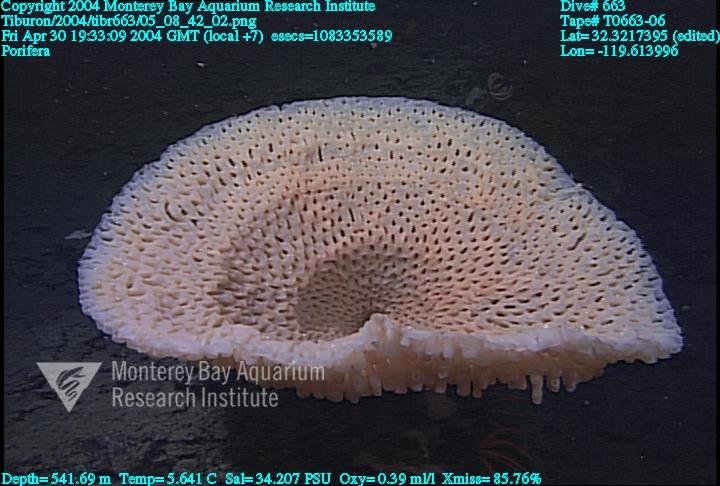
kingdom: Animalia
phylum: Porifera
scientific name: Porifera
